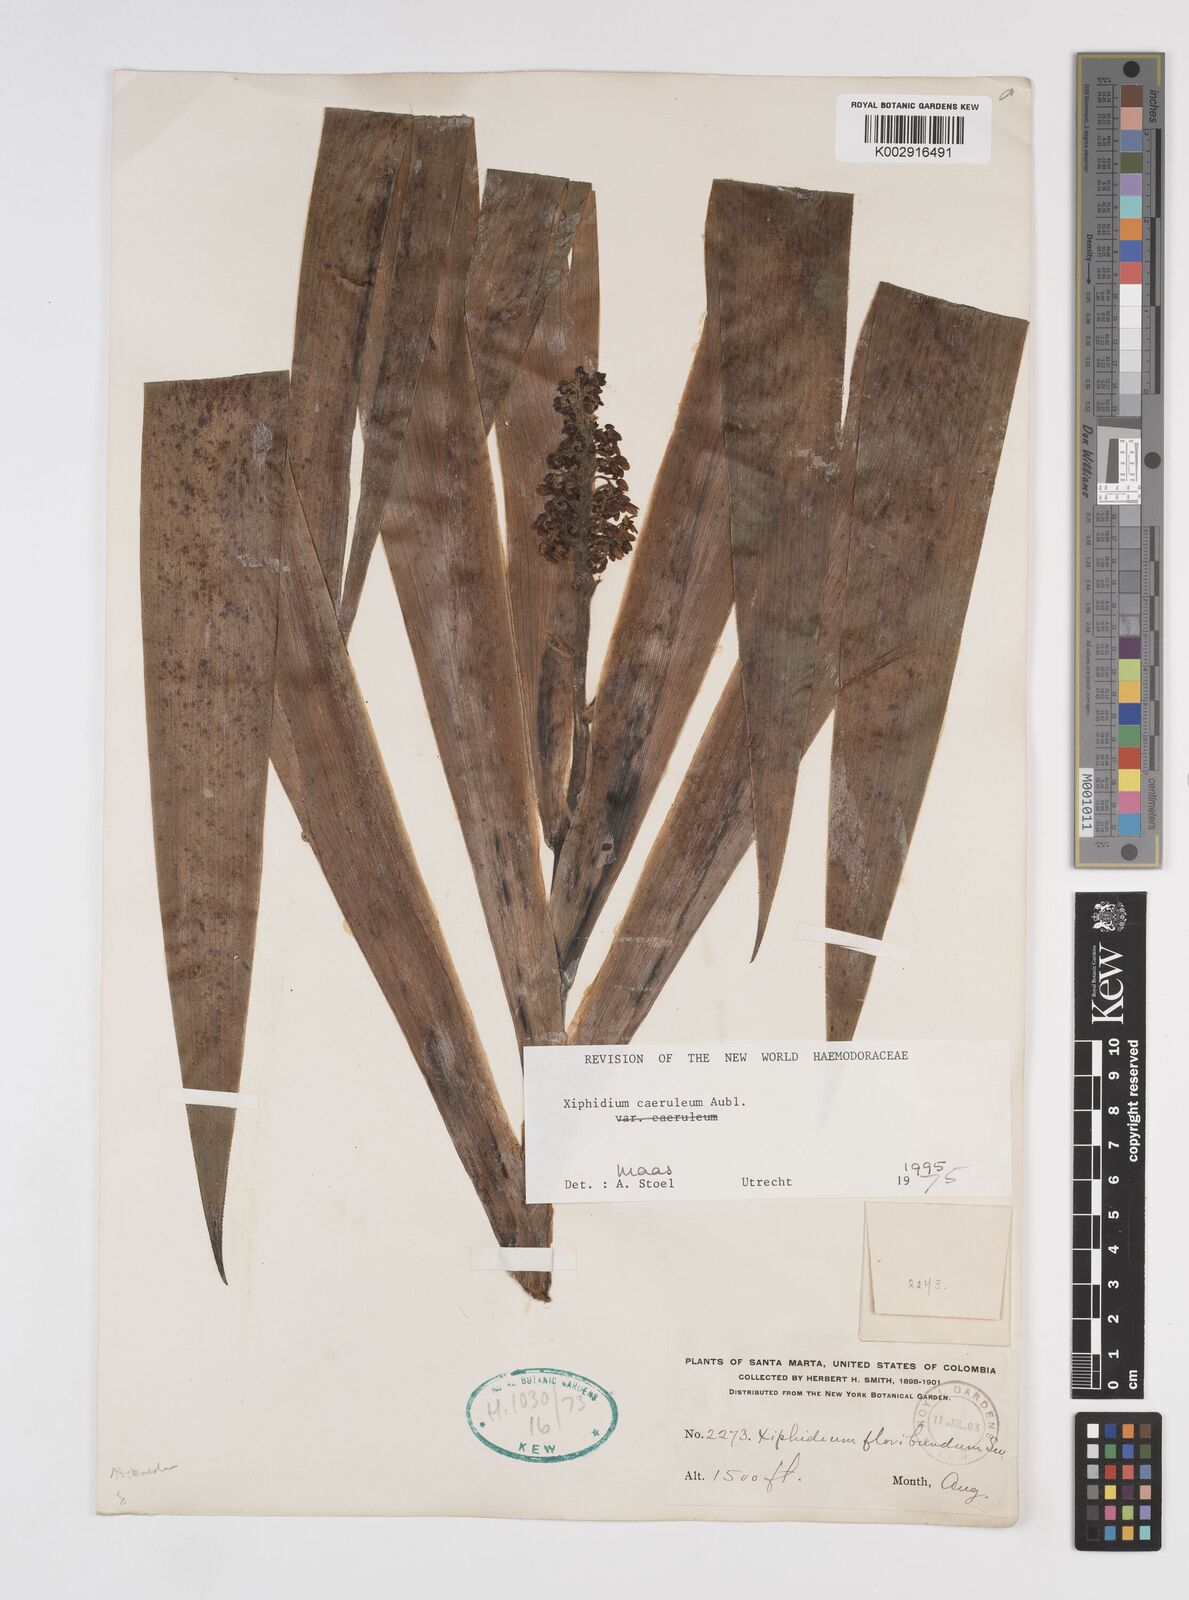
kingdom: Plantae
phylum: Tracheophyta
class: Liliopsida
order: Commelinales
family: Haemodoraceae
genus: Xiphidium
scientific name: Xiphidium caeruleum
